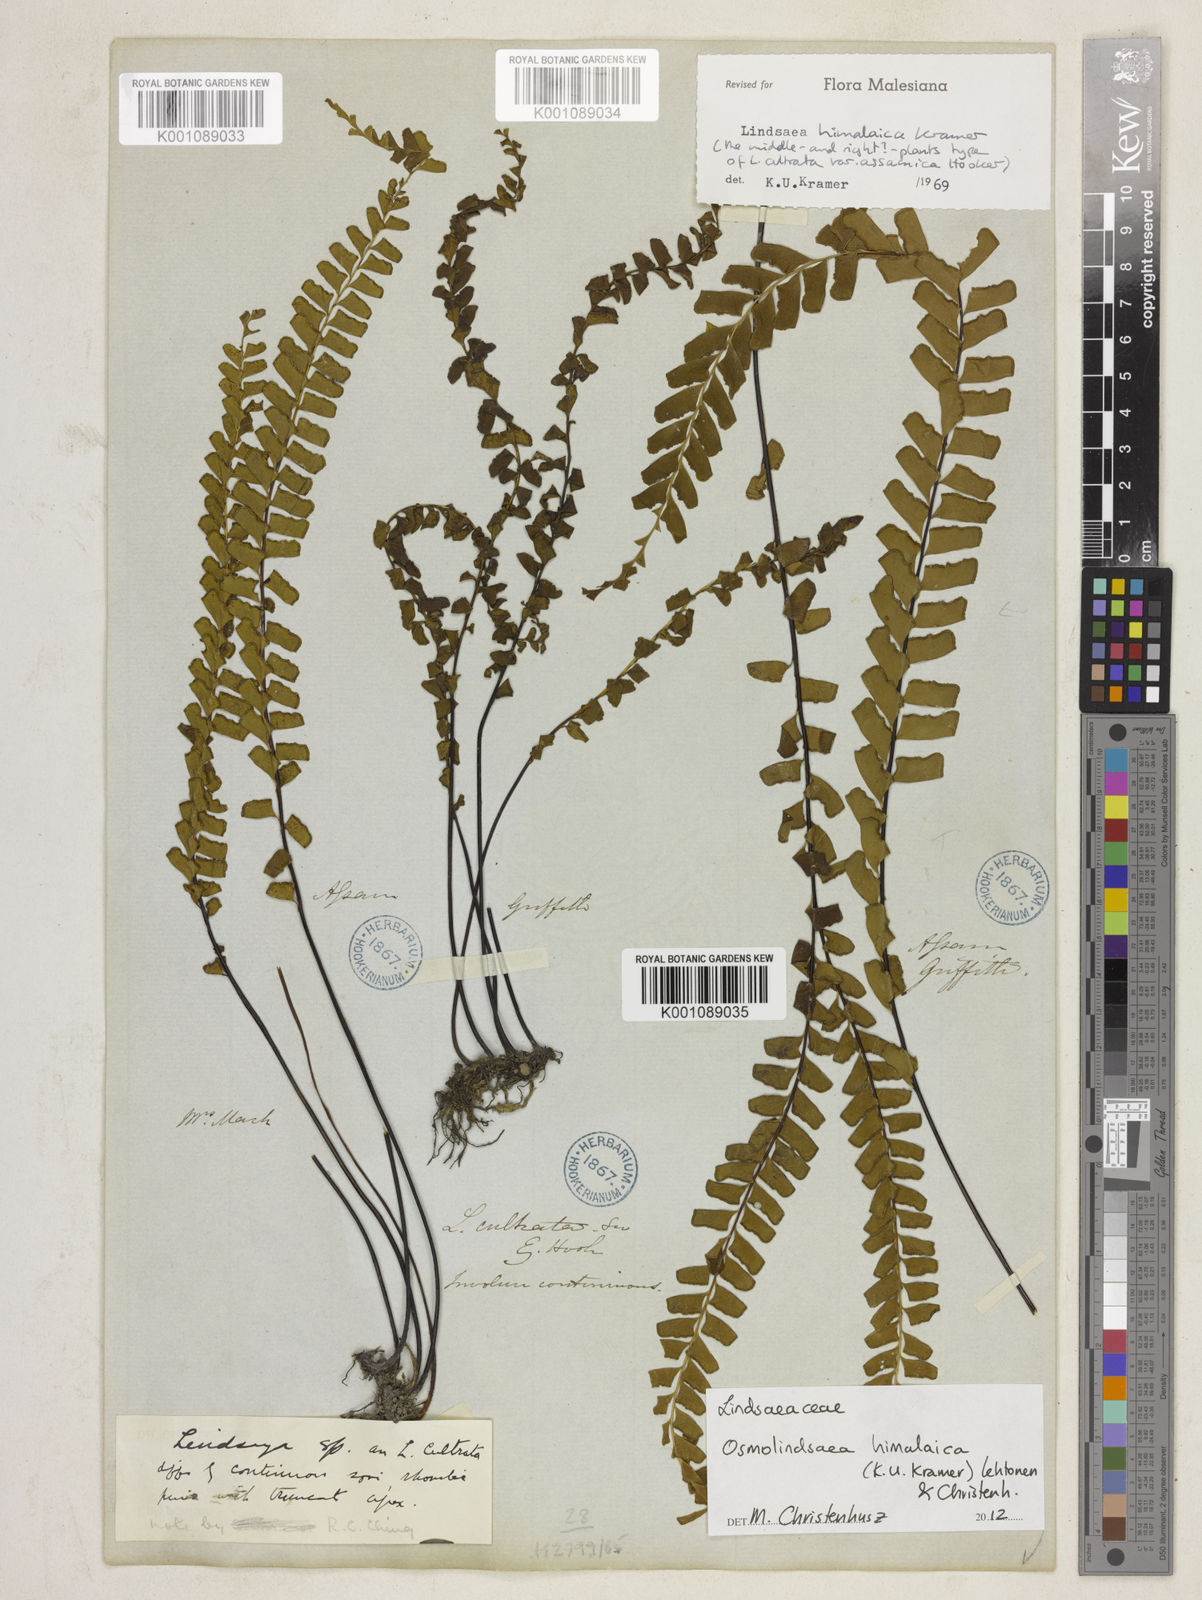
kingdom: Plantae
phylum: Tracheophyta
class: Polypodiopsida
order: Polypodiales
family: Lindsaeaceae
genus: Osmolindsaea
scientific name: Osmolindsaea himalaica
